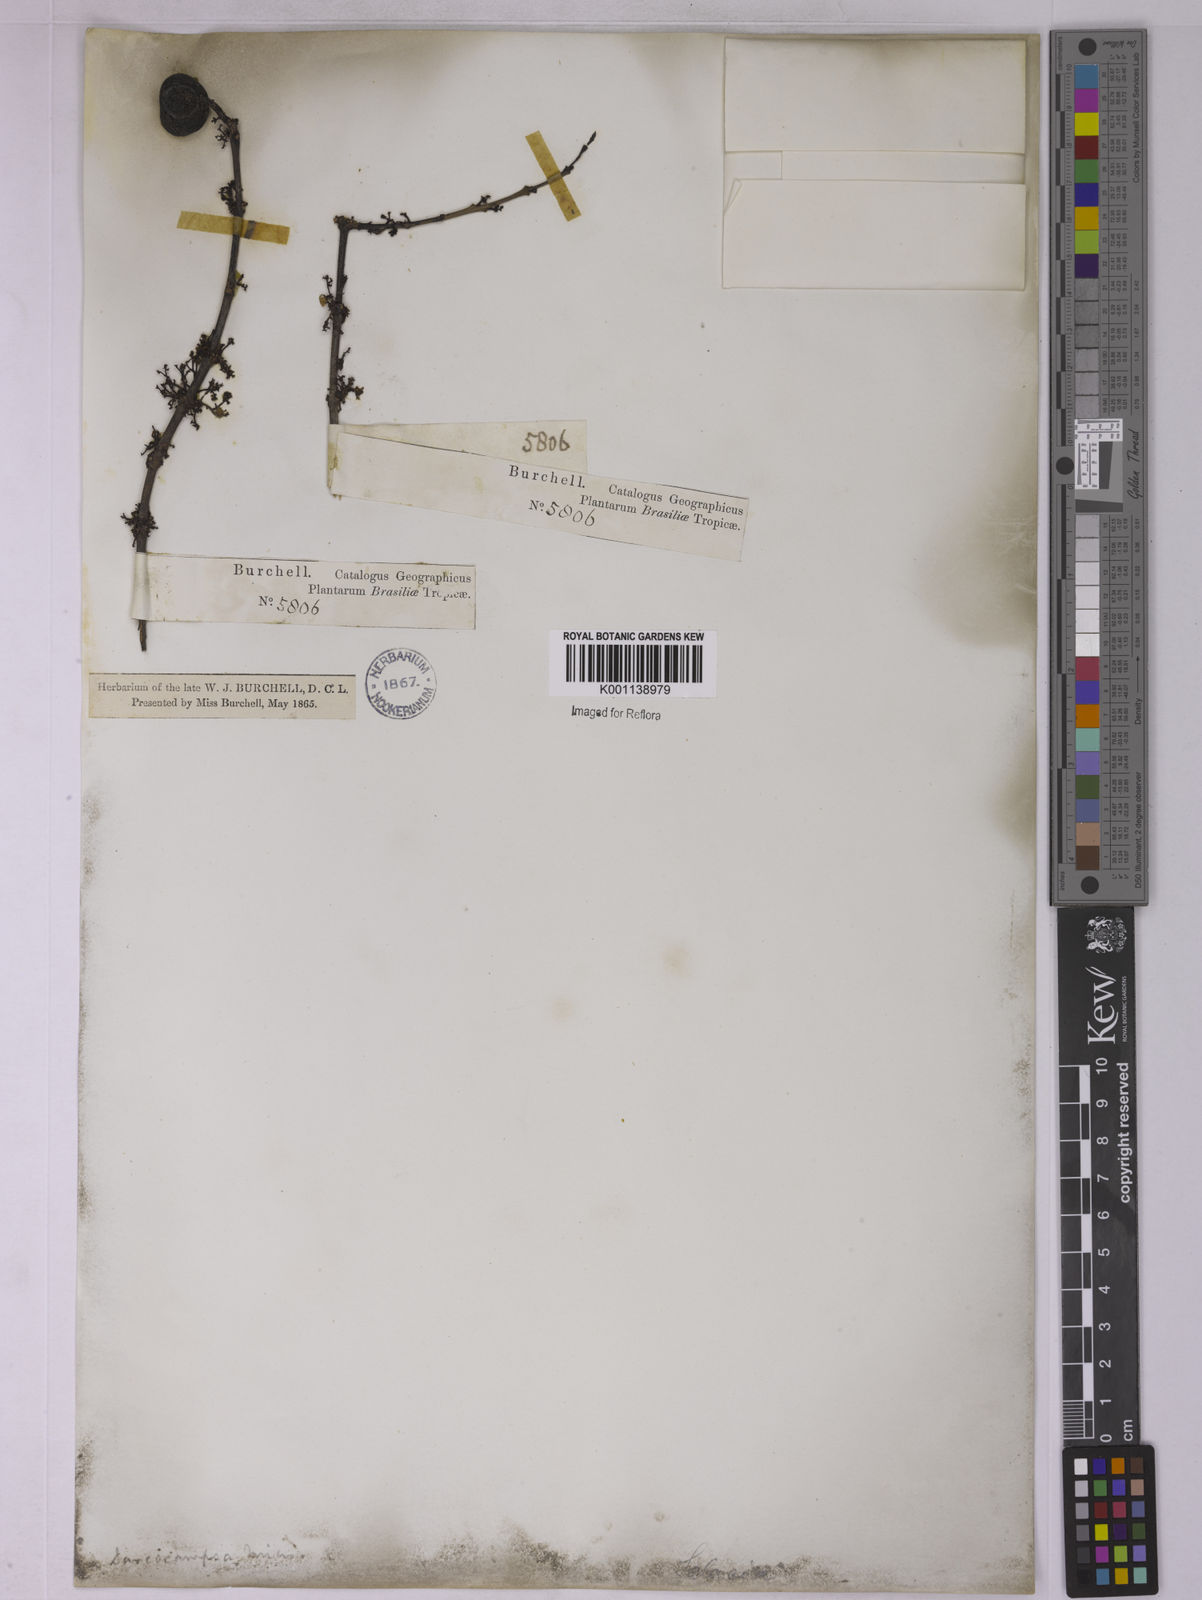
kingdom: Plantae
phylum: Tracheophyta
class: Magnoliopsida
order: Celastrales
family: Celastraceae
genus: Peritassa
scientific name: Peritassa campestris
